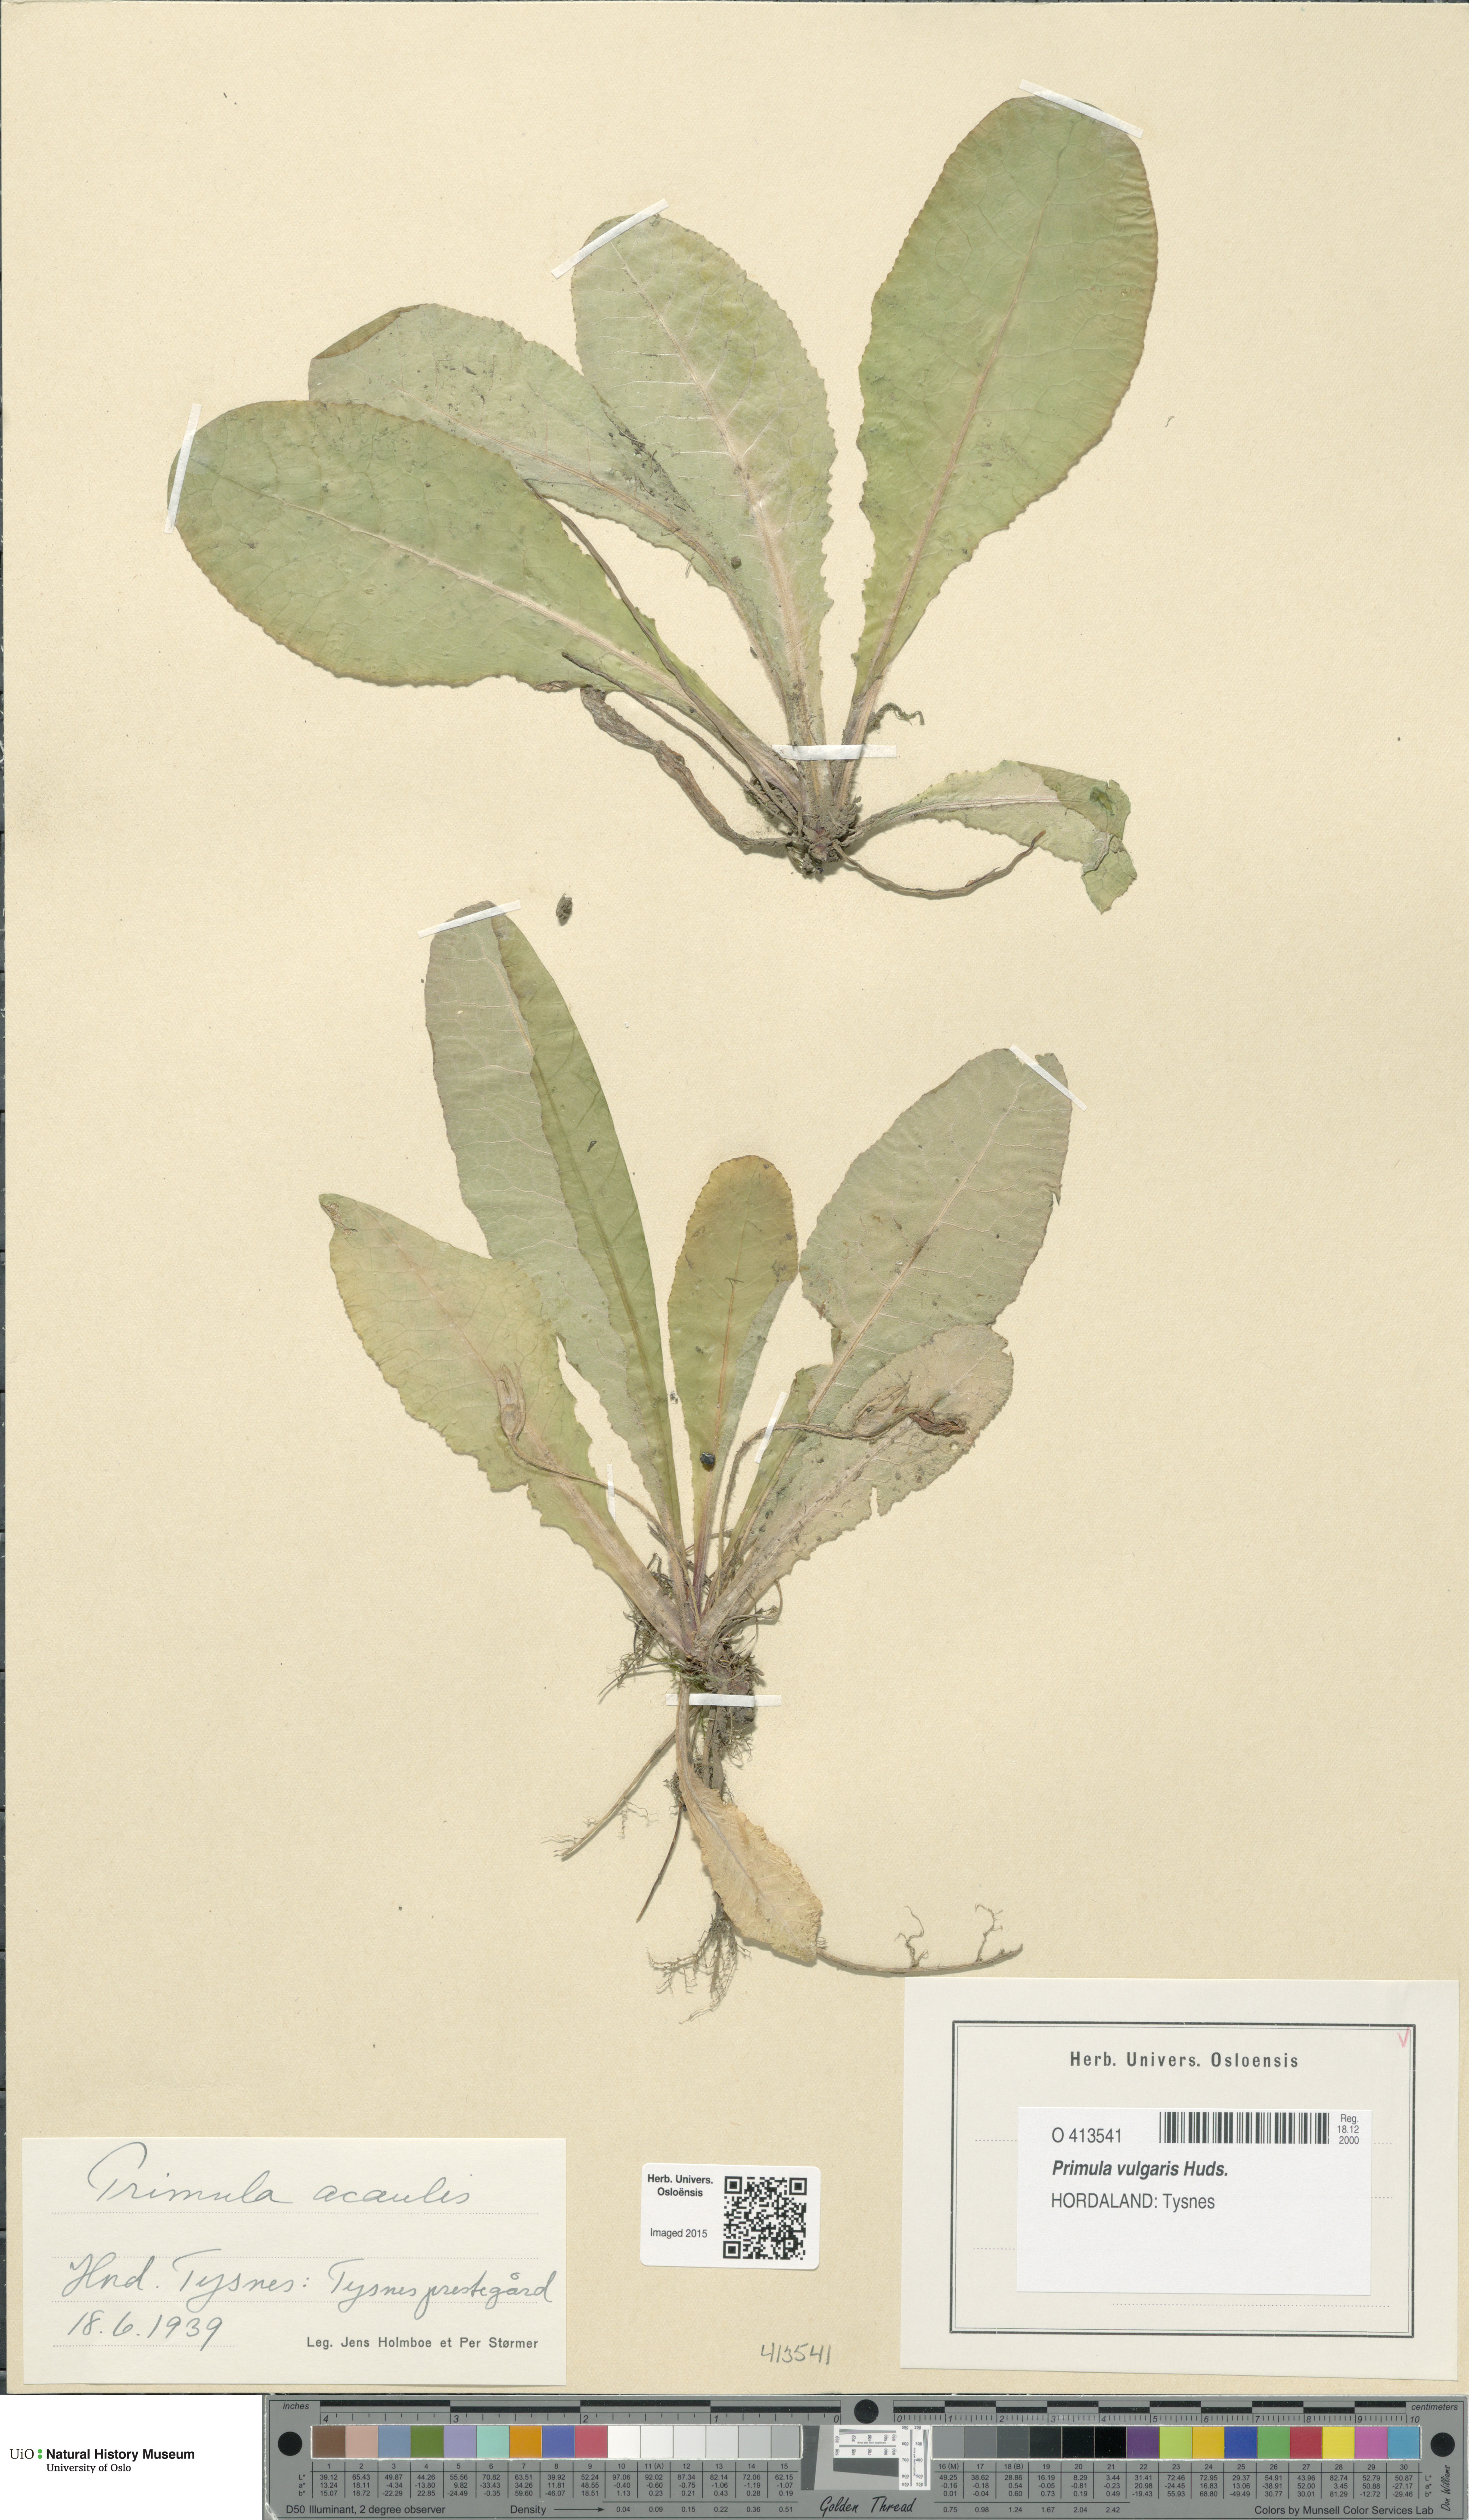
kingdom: Plantae
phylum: Tracheophyta
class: Magnoliopsida
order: Ericales
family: Primulaceae
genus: Primula
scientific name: Primula vulgaris
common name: Primrose
